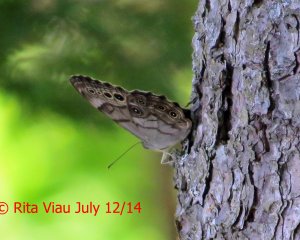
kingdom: Animalia
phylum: Arthropoda
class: Insecta
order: Lepidoptera
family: Nymphalidae
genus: Lethe
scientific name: Lethe anthedon
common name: Northern Pearly-Eye
